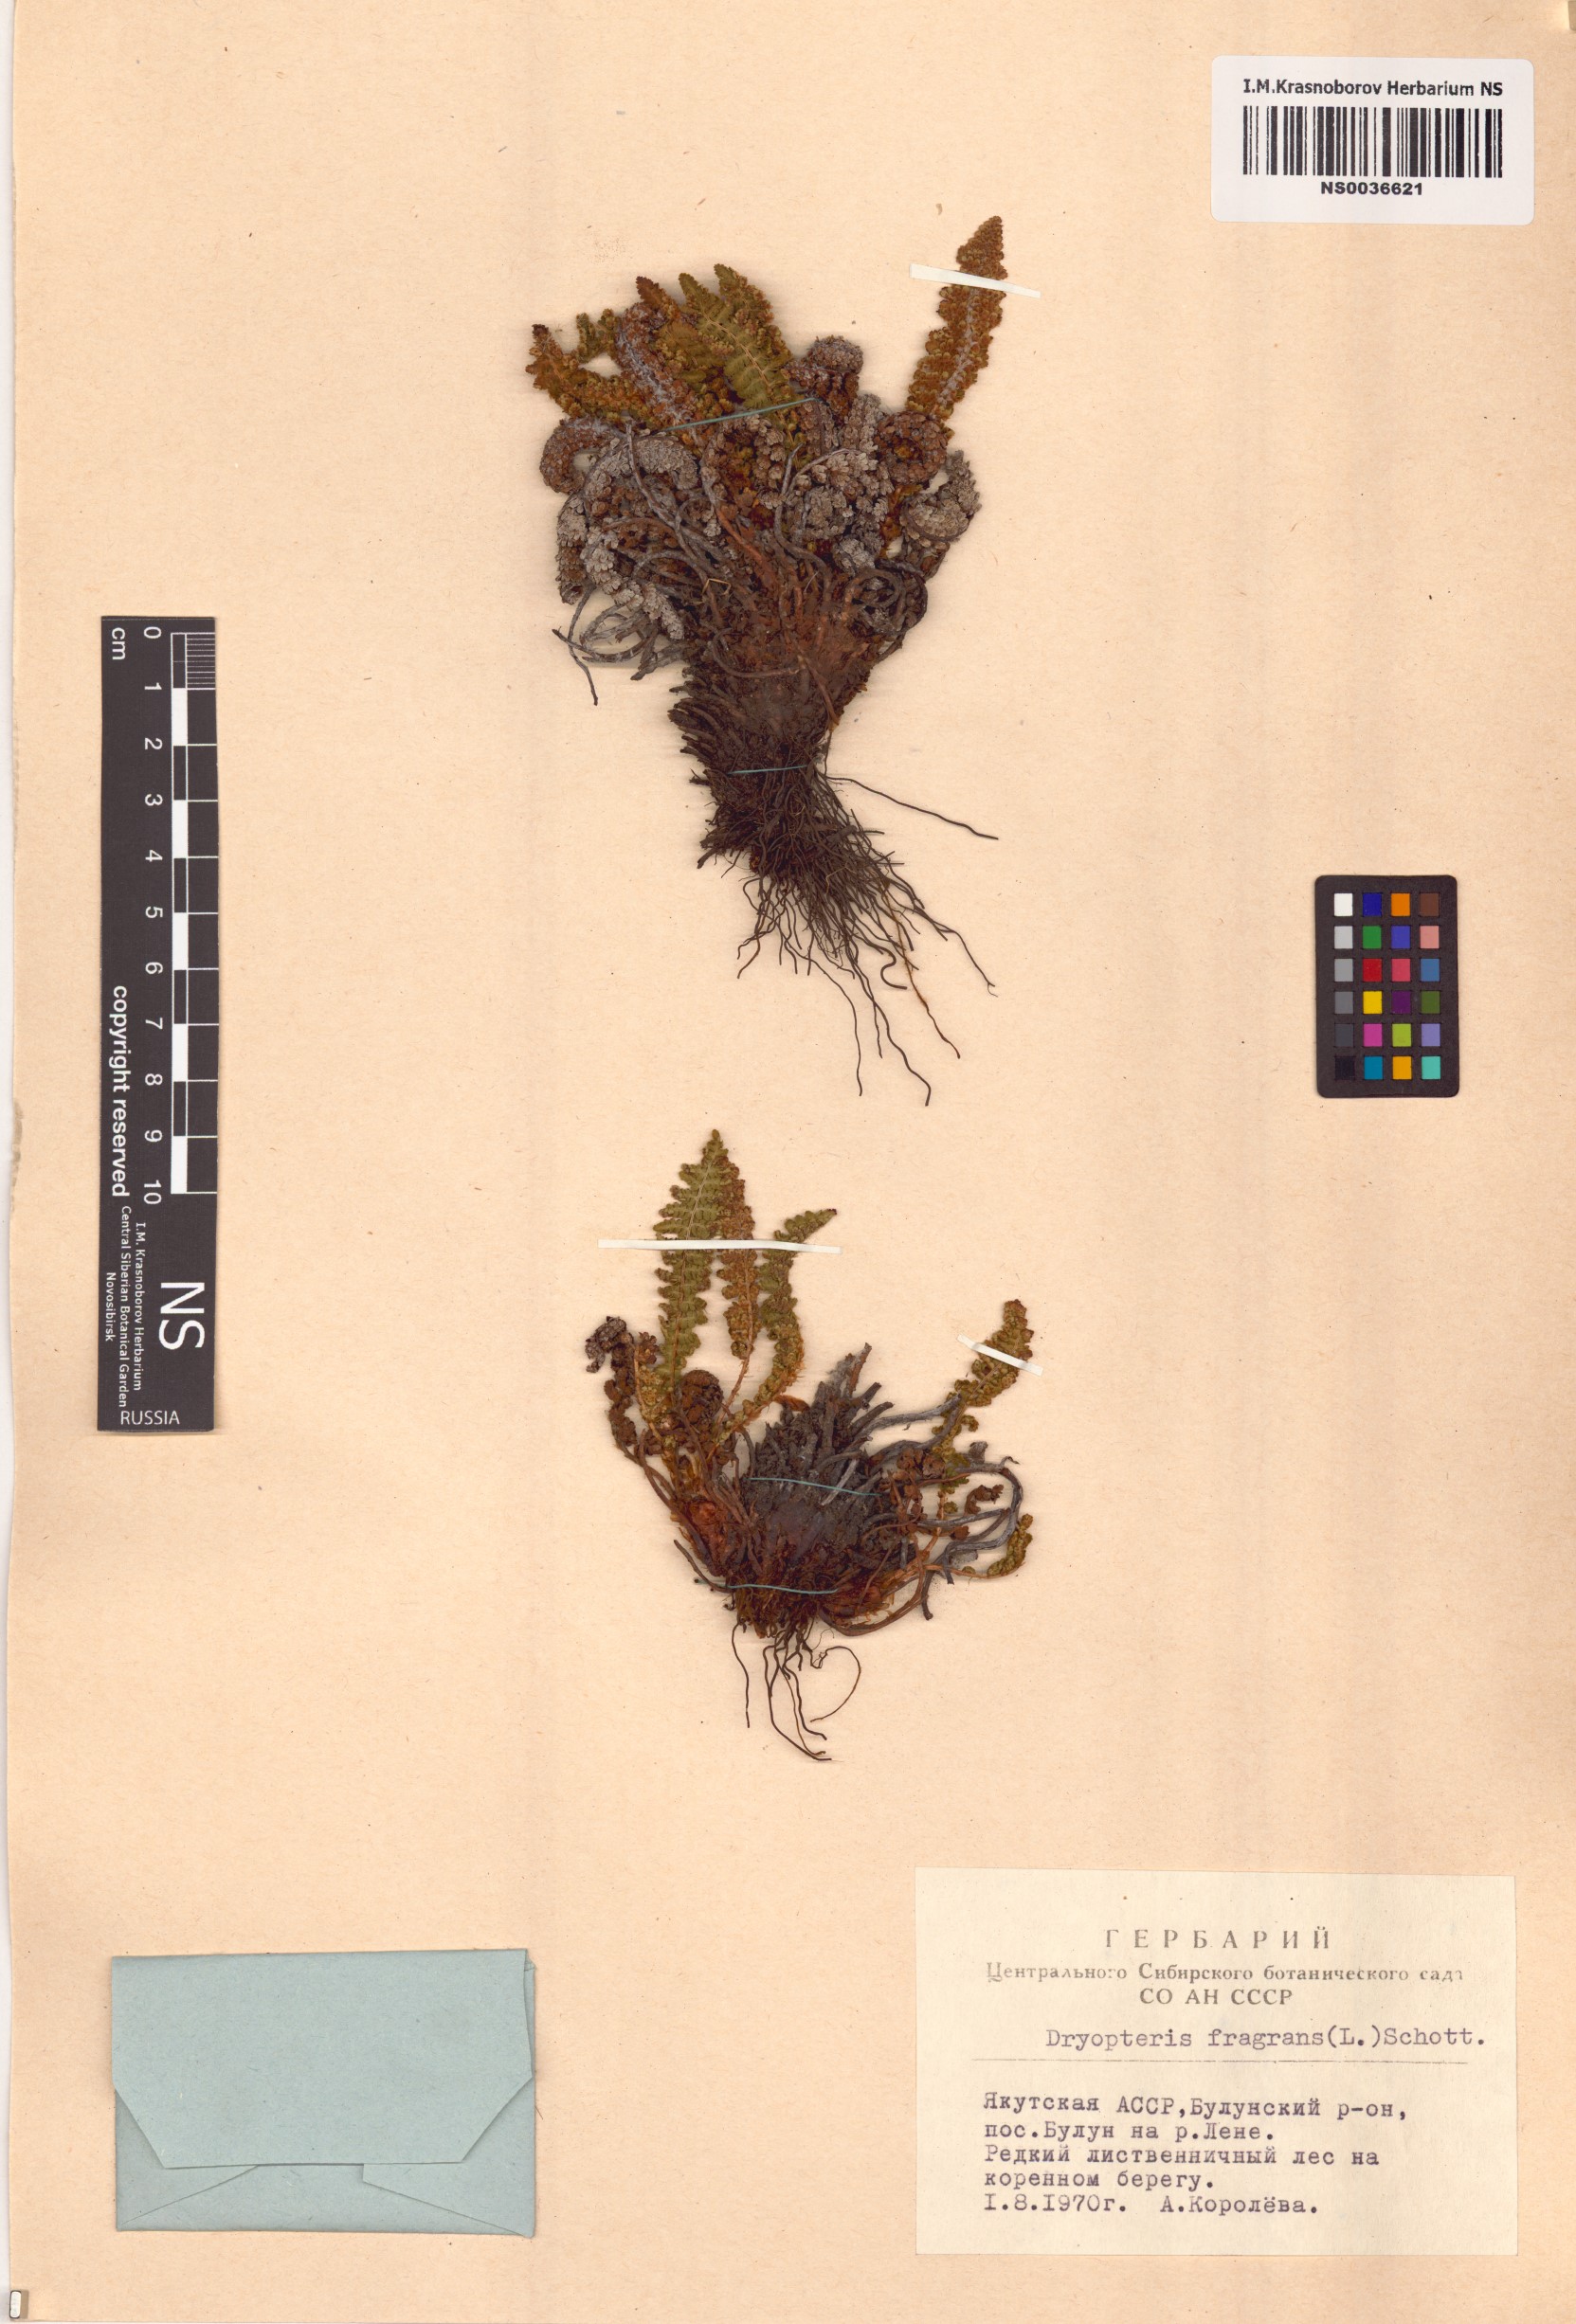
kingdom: Plantae
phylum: Tracheophyta
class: Polypodiopsida
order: Polypodiales
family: Dryopteridaceae
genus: Dryopteris
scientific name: Dryopteris fragrans
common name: Fragrant wood fern
